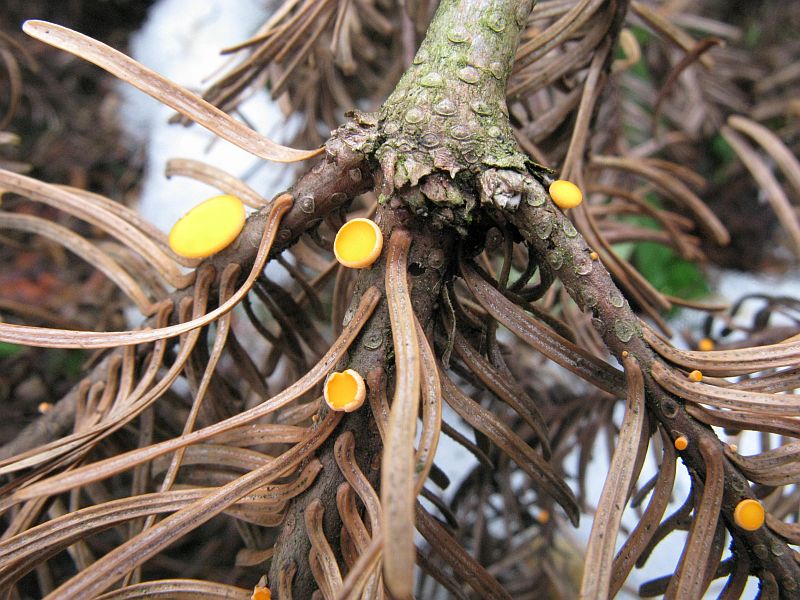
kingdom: Fungi
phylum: Ascomycota
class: Pezizomycetes
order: Pezizales
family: Sarcoscyphaceae
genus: Pithya
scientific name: Pithya vulgaris
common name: stor dukatbæger
